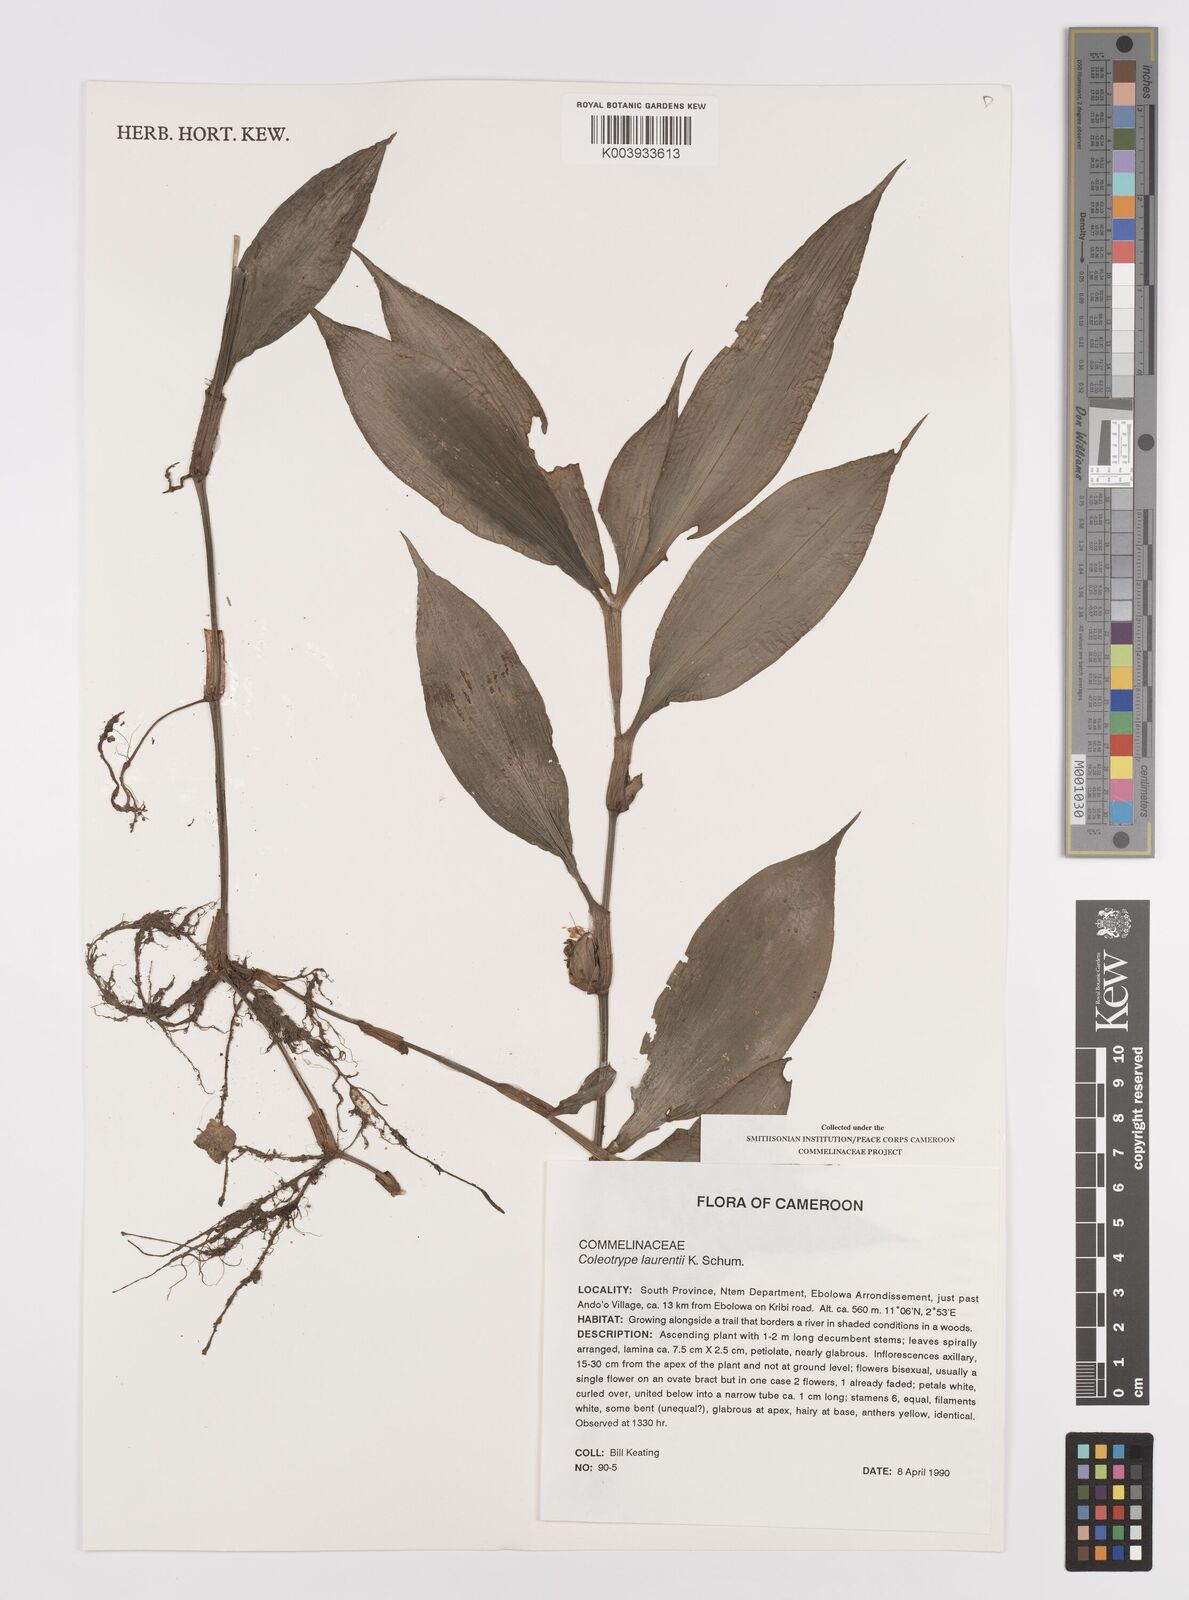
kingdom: Plantae
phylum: Tracheophyta
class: Liliopsida
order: Commelinales
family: Commelinaceae
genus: Coleotrype
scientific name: Coleotrype laurentii
